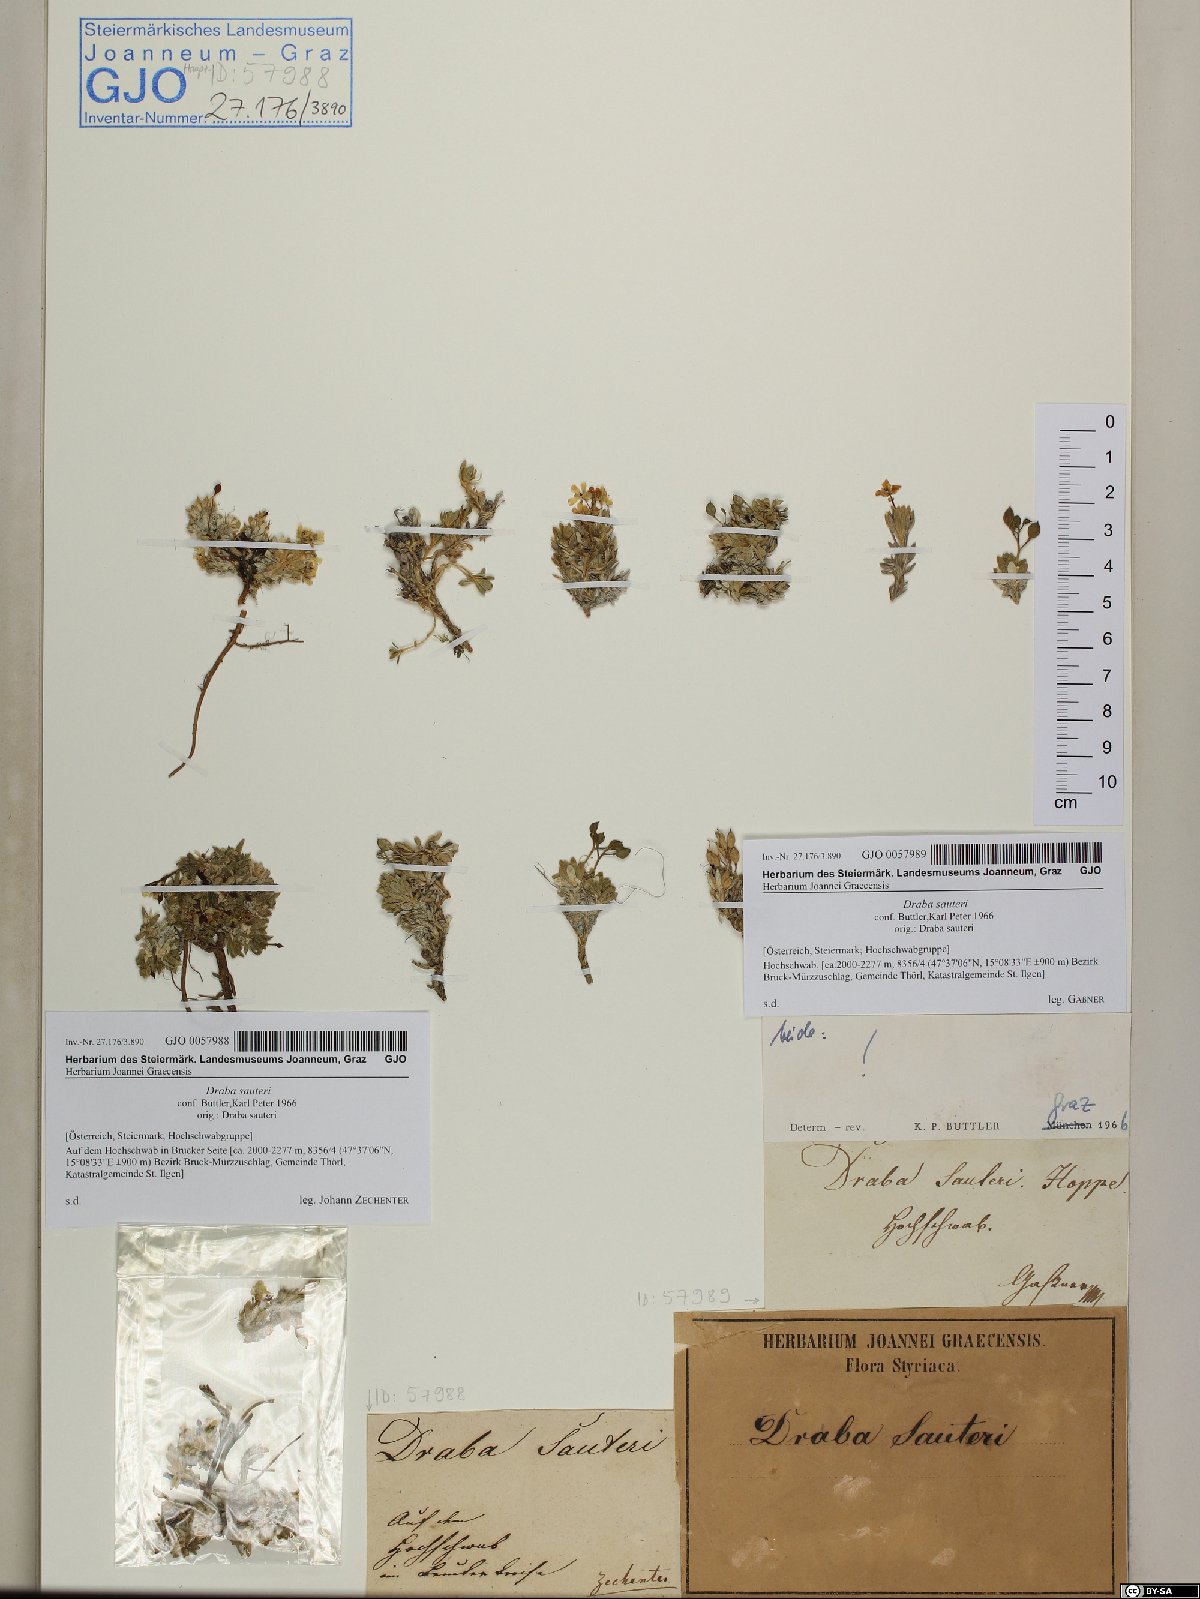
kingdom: Plantae
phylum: Tracheophyta
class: Magnoliopsida
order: Brassicales
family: Brassicaceae
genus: Draba
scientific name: Draba sauteri
